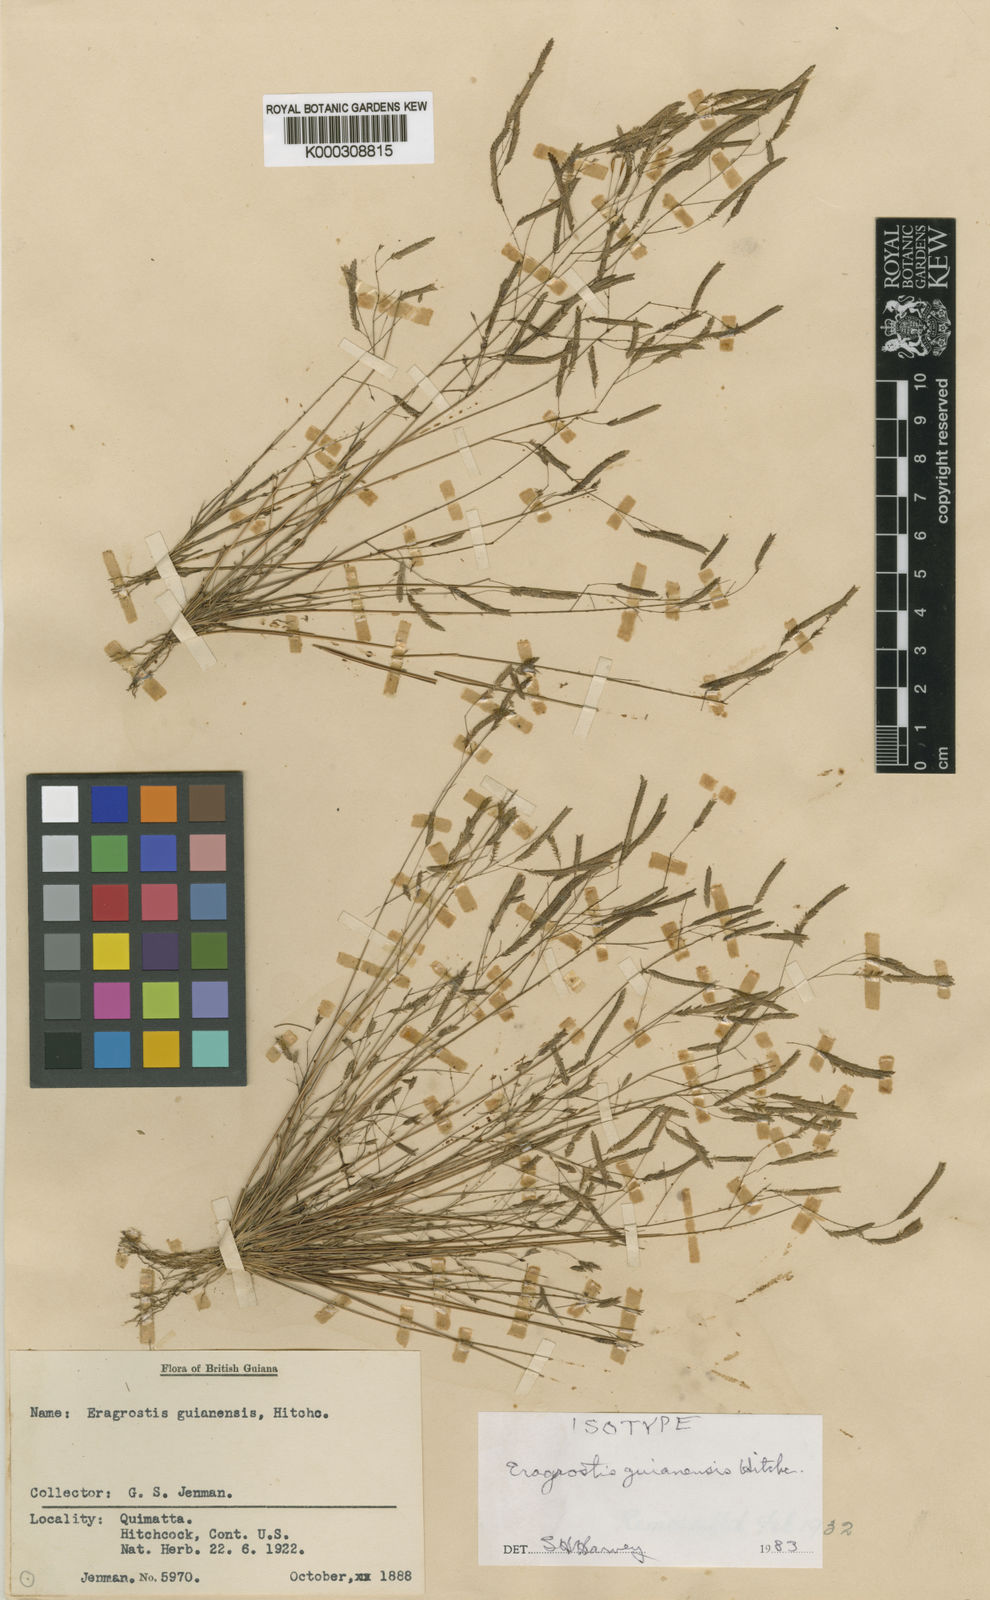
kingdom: Plantae
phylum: Tracheophyta
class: Liliopsida
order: Poales
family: Poaceae
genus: Eragrostis
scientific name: Eragrostis guianensis
